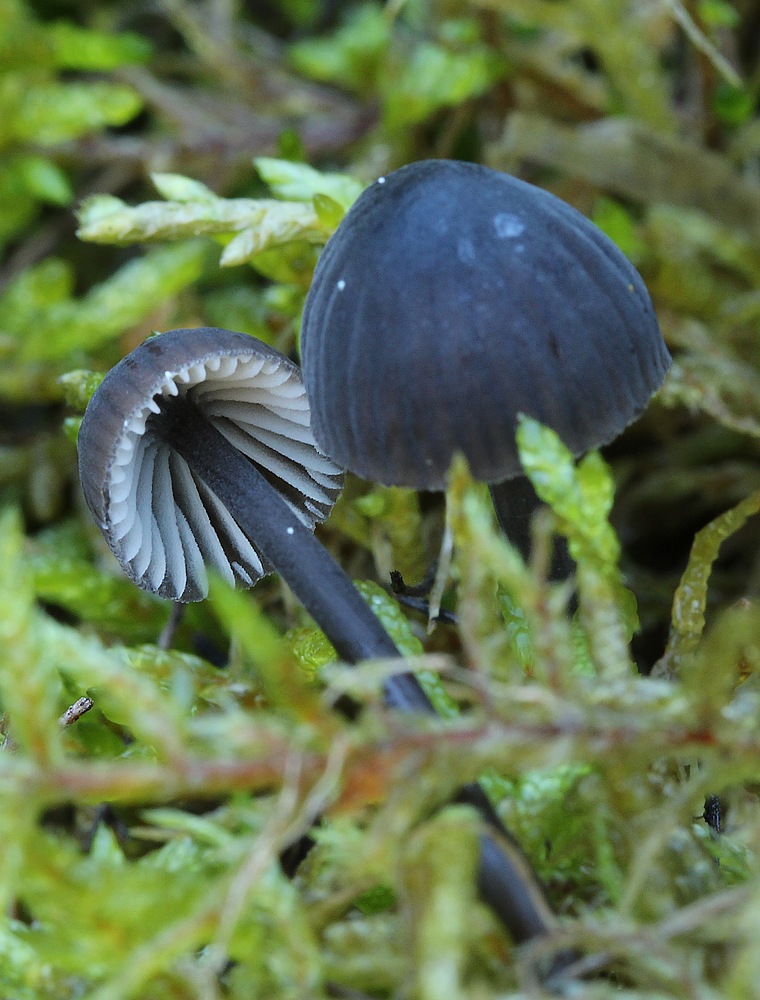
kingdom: Fungi
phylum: Basidiomycota
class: Agaricomycetes
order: Agaricales
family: Mycenaceae
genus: Mycena
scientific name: Mycena galopus
